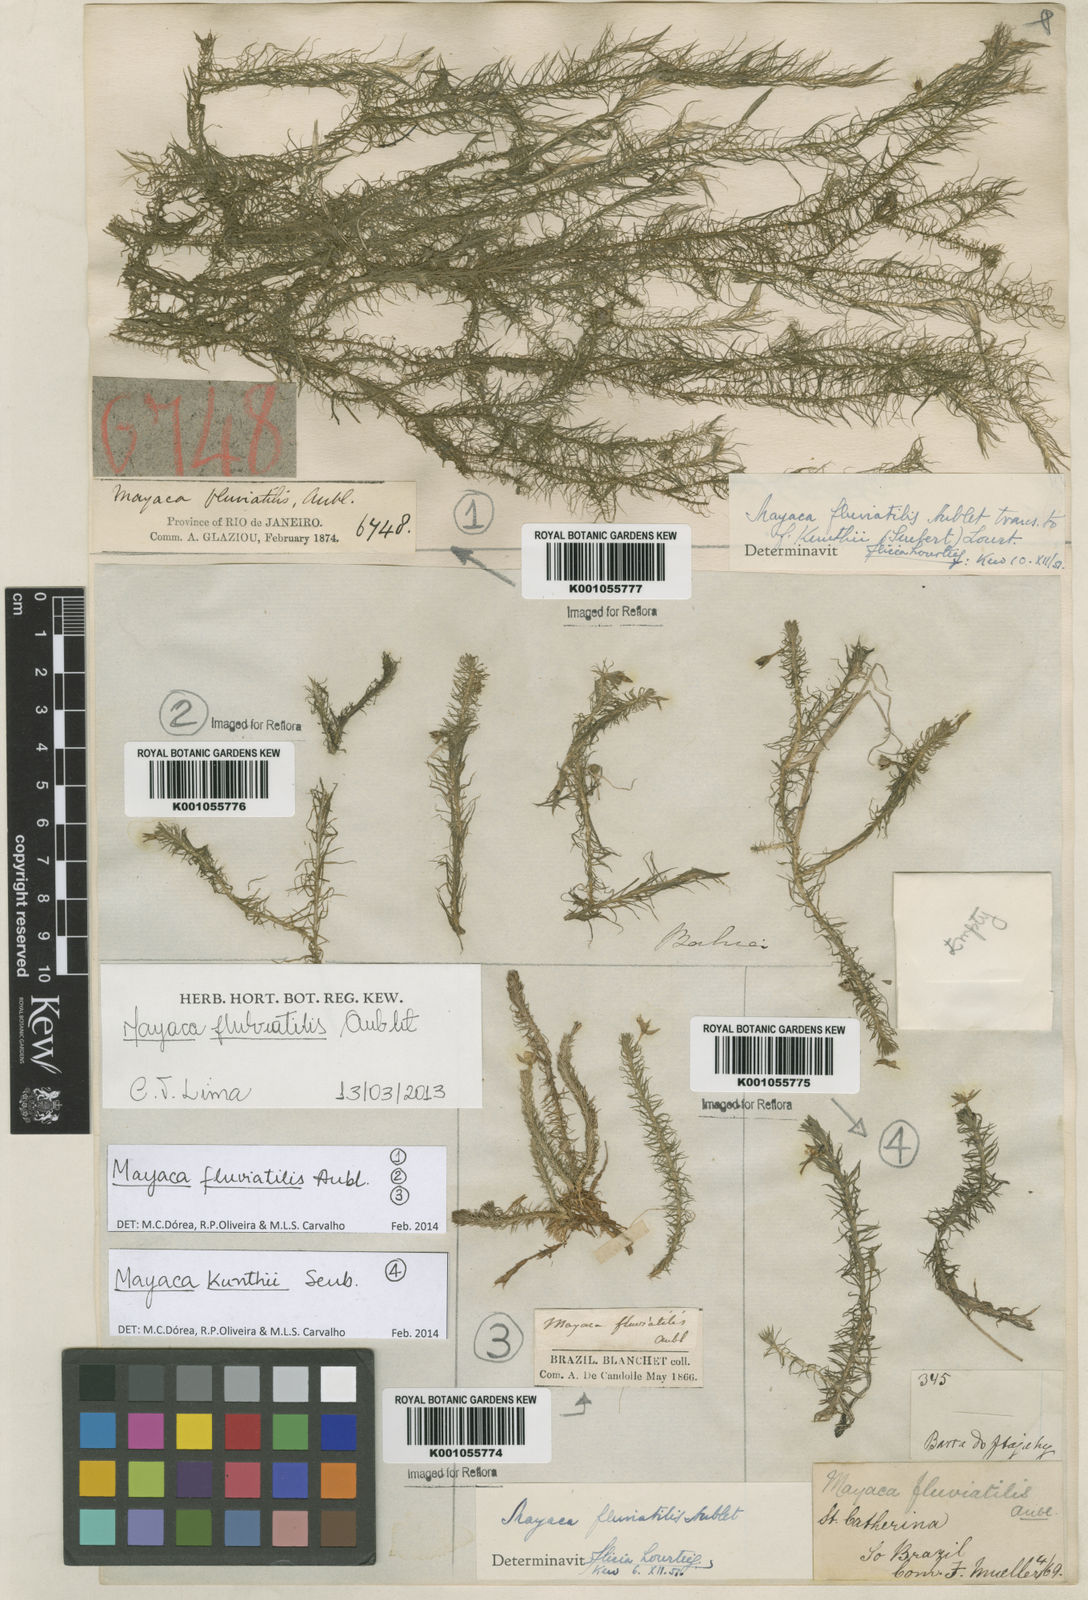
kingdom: Plantae
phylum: Tracheophyta
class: Liliopsida
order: Poales
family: Mayacaceae
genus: Mayaca
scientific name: Mayaca
